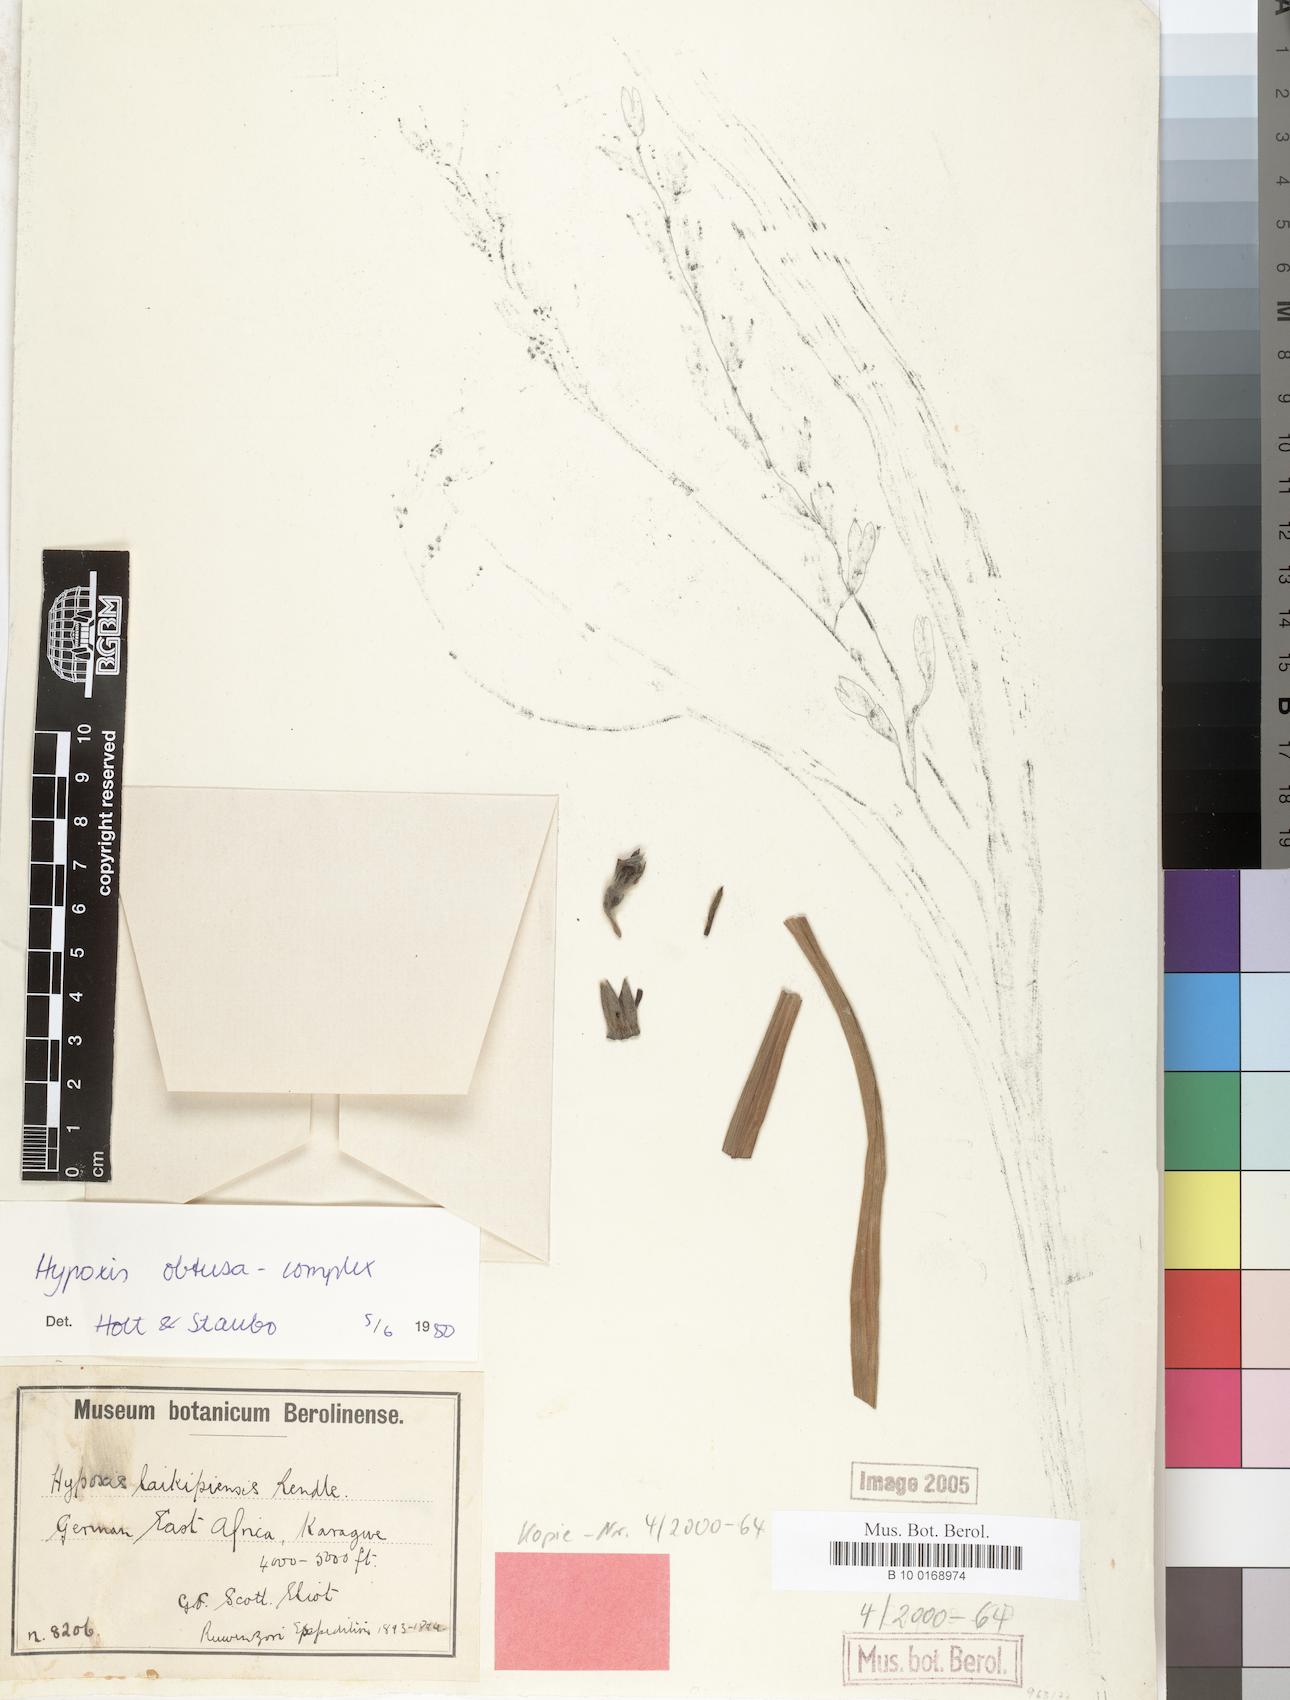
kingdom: Plantae
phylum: Tracheophyta
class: Liliopsida
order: Asparagales
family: Hypoxidaceae
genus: Hypoxis
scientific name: Hypoxis
